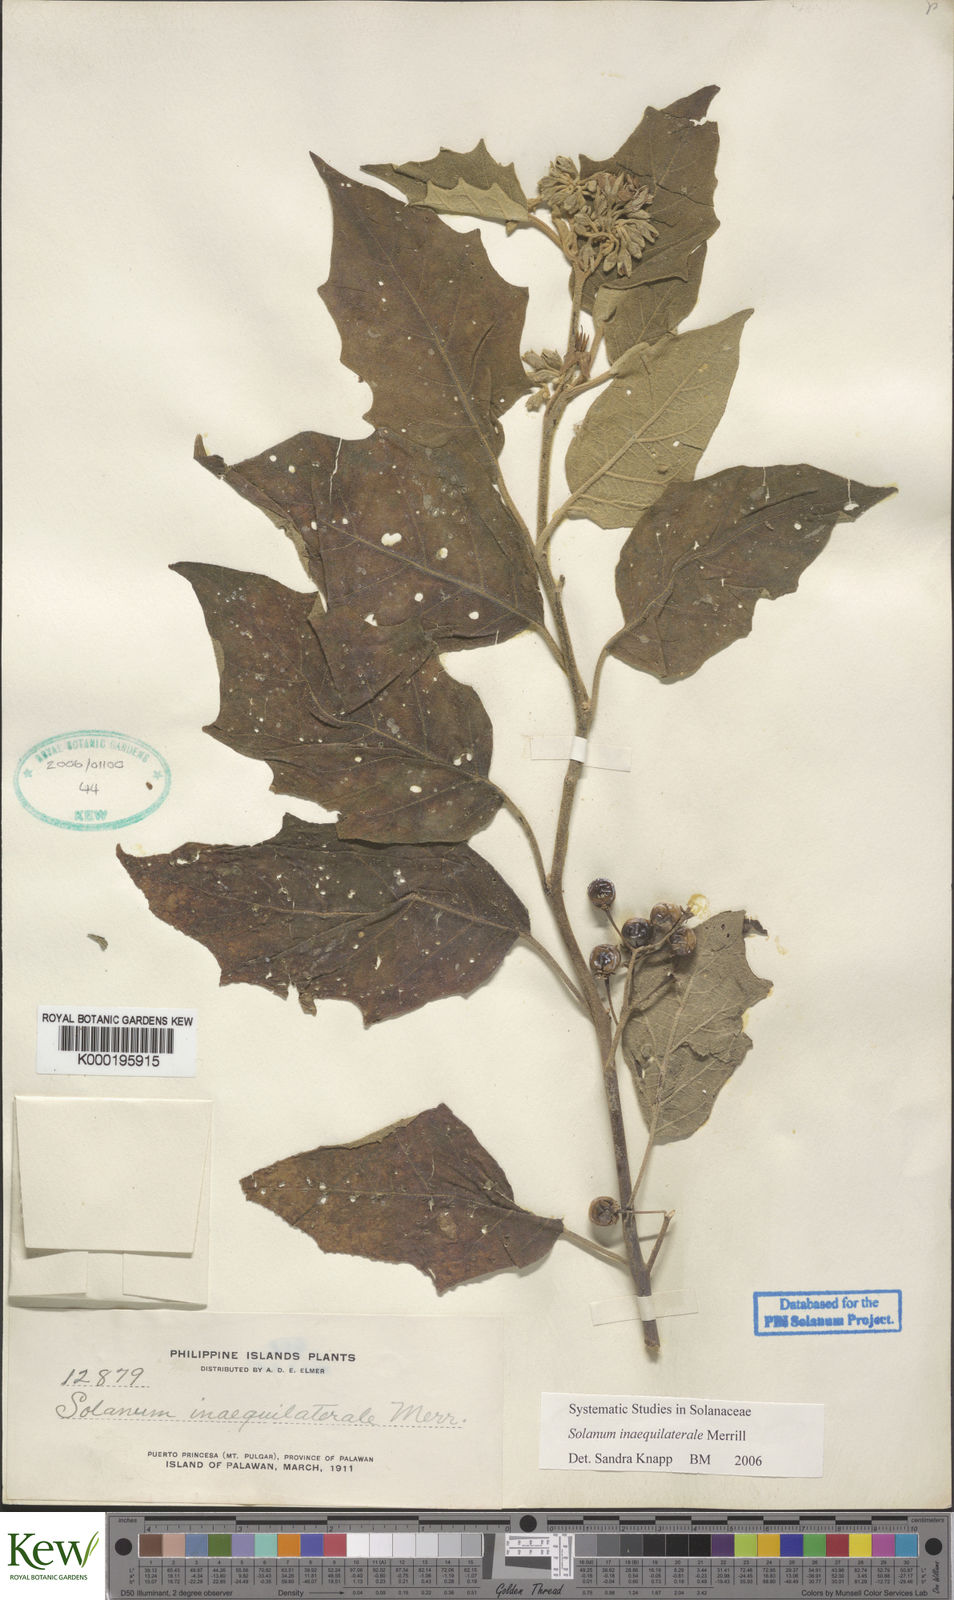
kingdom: Plantae
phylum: Tracheophyta
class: Magnoliopsida
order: Solanales
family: Solanaceae
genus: Solanum
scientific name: Solanum pseudosaponaceum
